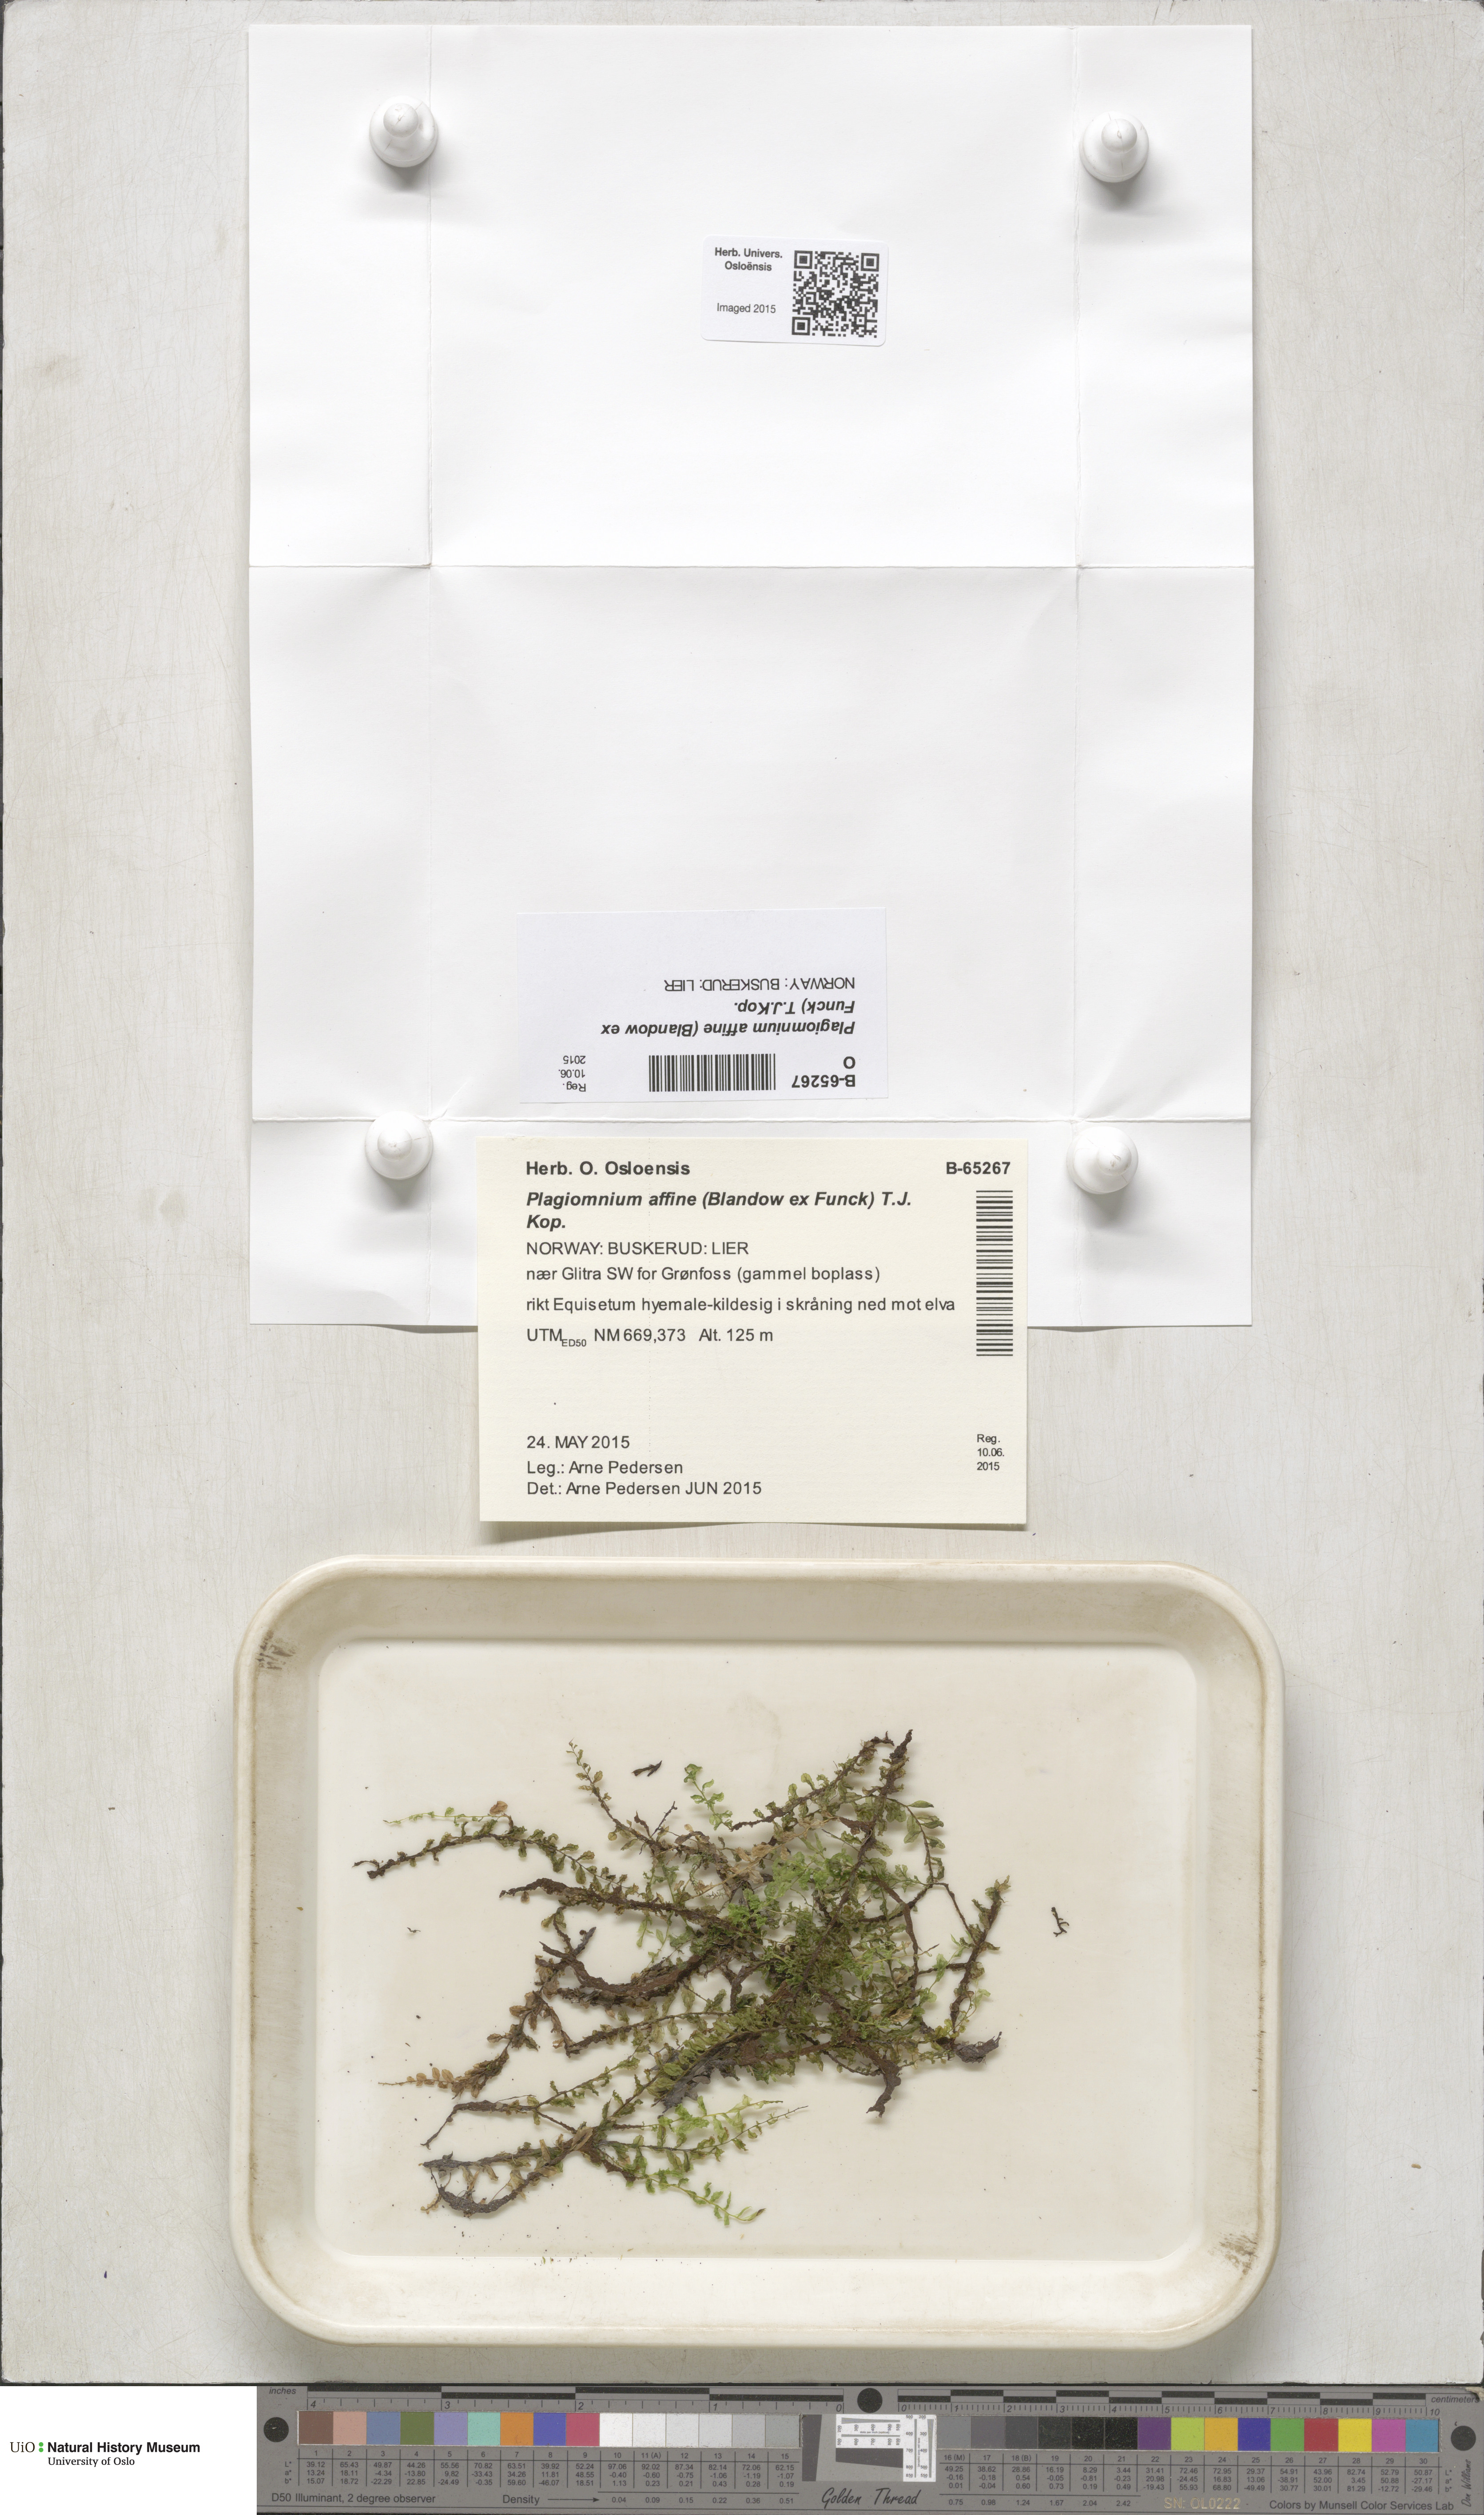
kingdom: Plantae
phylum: Bryophyta
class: Bryopsida
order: Bryales
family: Mniaceae
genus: Plagiomnium
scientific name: Plagiomnium affine
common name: Many-fruited thyme-moss
